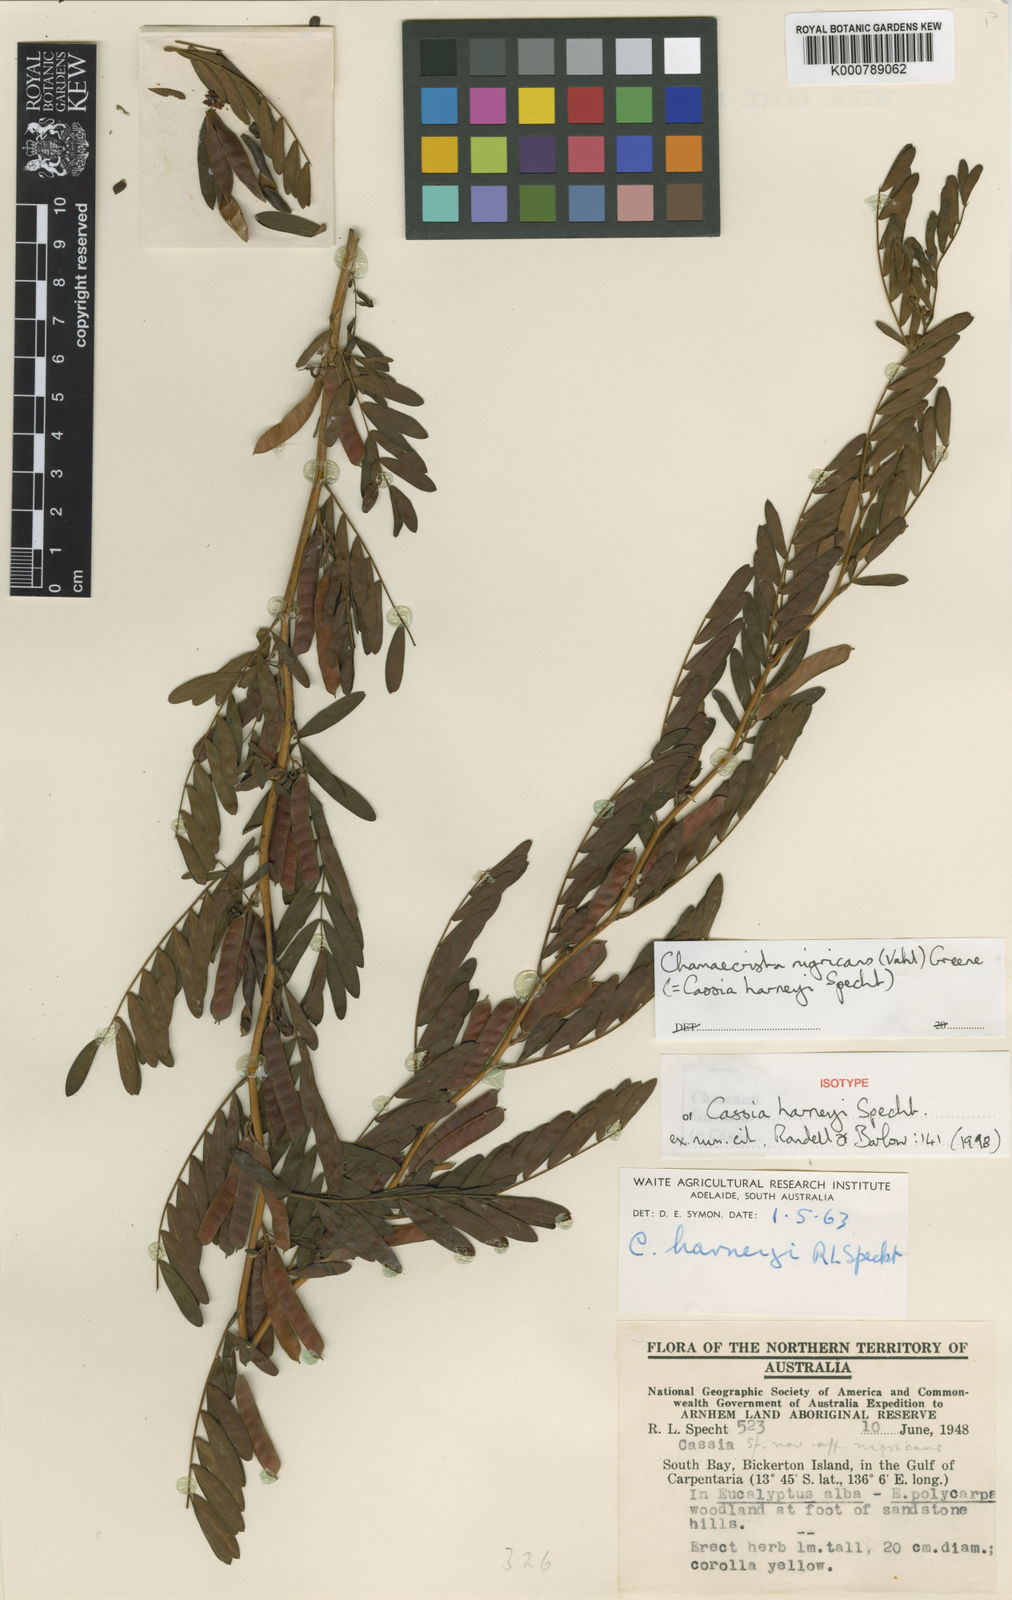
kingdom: Plantae
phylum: Tracheophyta
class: Magnoliopsida
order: Fabales
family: Fabaceae
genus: Chamaecrista
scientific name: Chamaecrista nigricans
